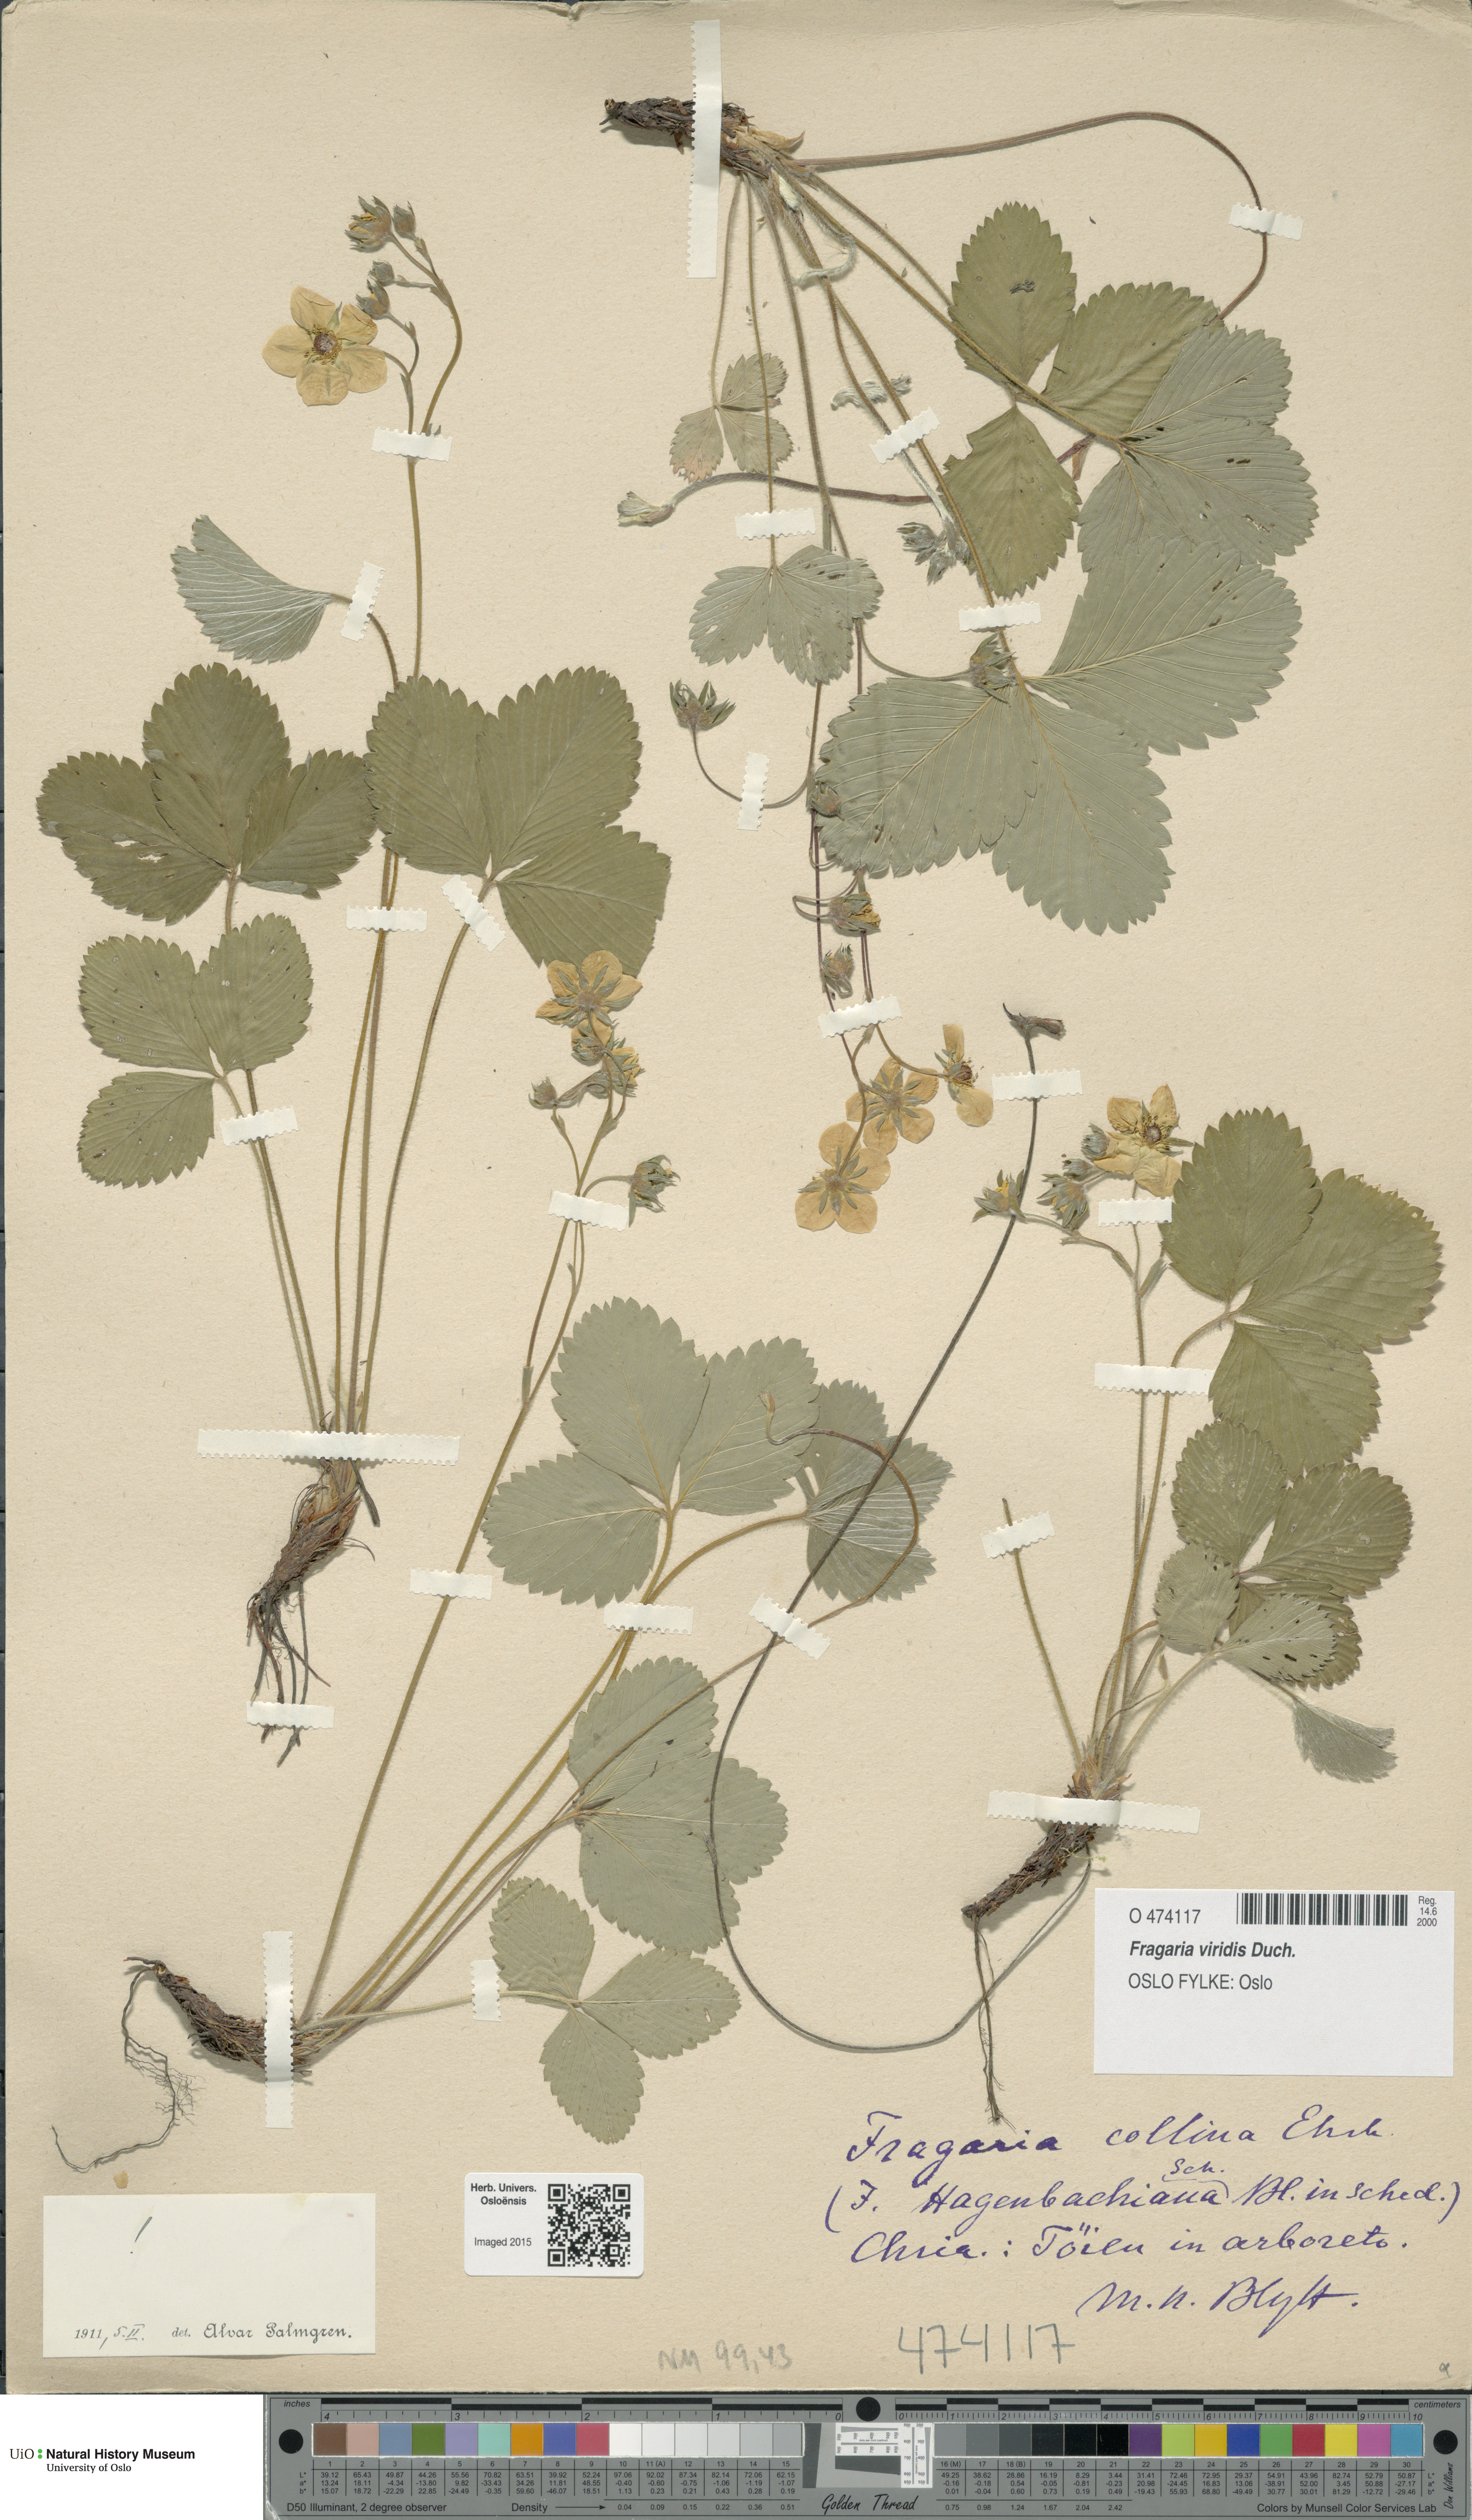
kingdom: Plantae
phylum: Tracheophyta
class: Magnoliopsida
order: Rosales
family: Rosaceae
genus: Fragaria
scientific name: Fragaria viridis
